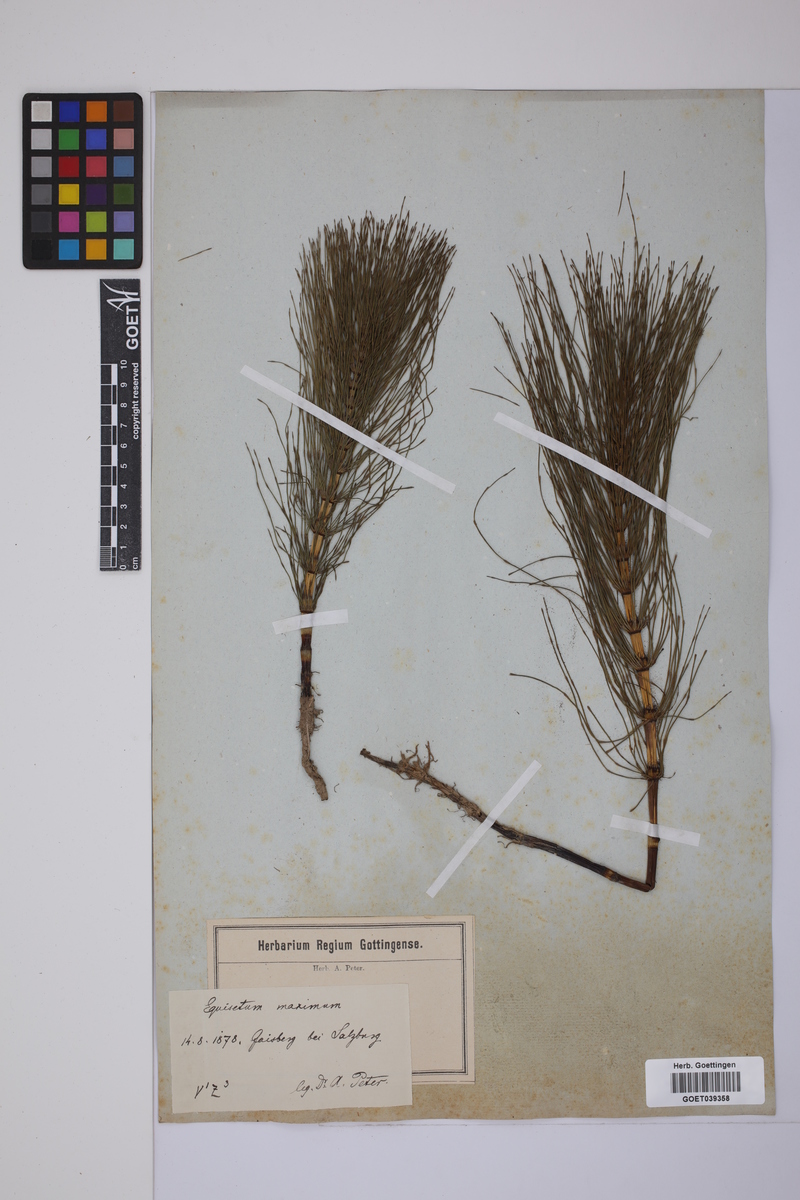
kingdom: Plantae
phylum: Tracheophyta
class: Polypodiopsida
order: Equisetales
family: Equisetaceae
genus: Equisetum
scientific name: Equisetum telmateia
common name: Great horsetail
